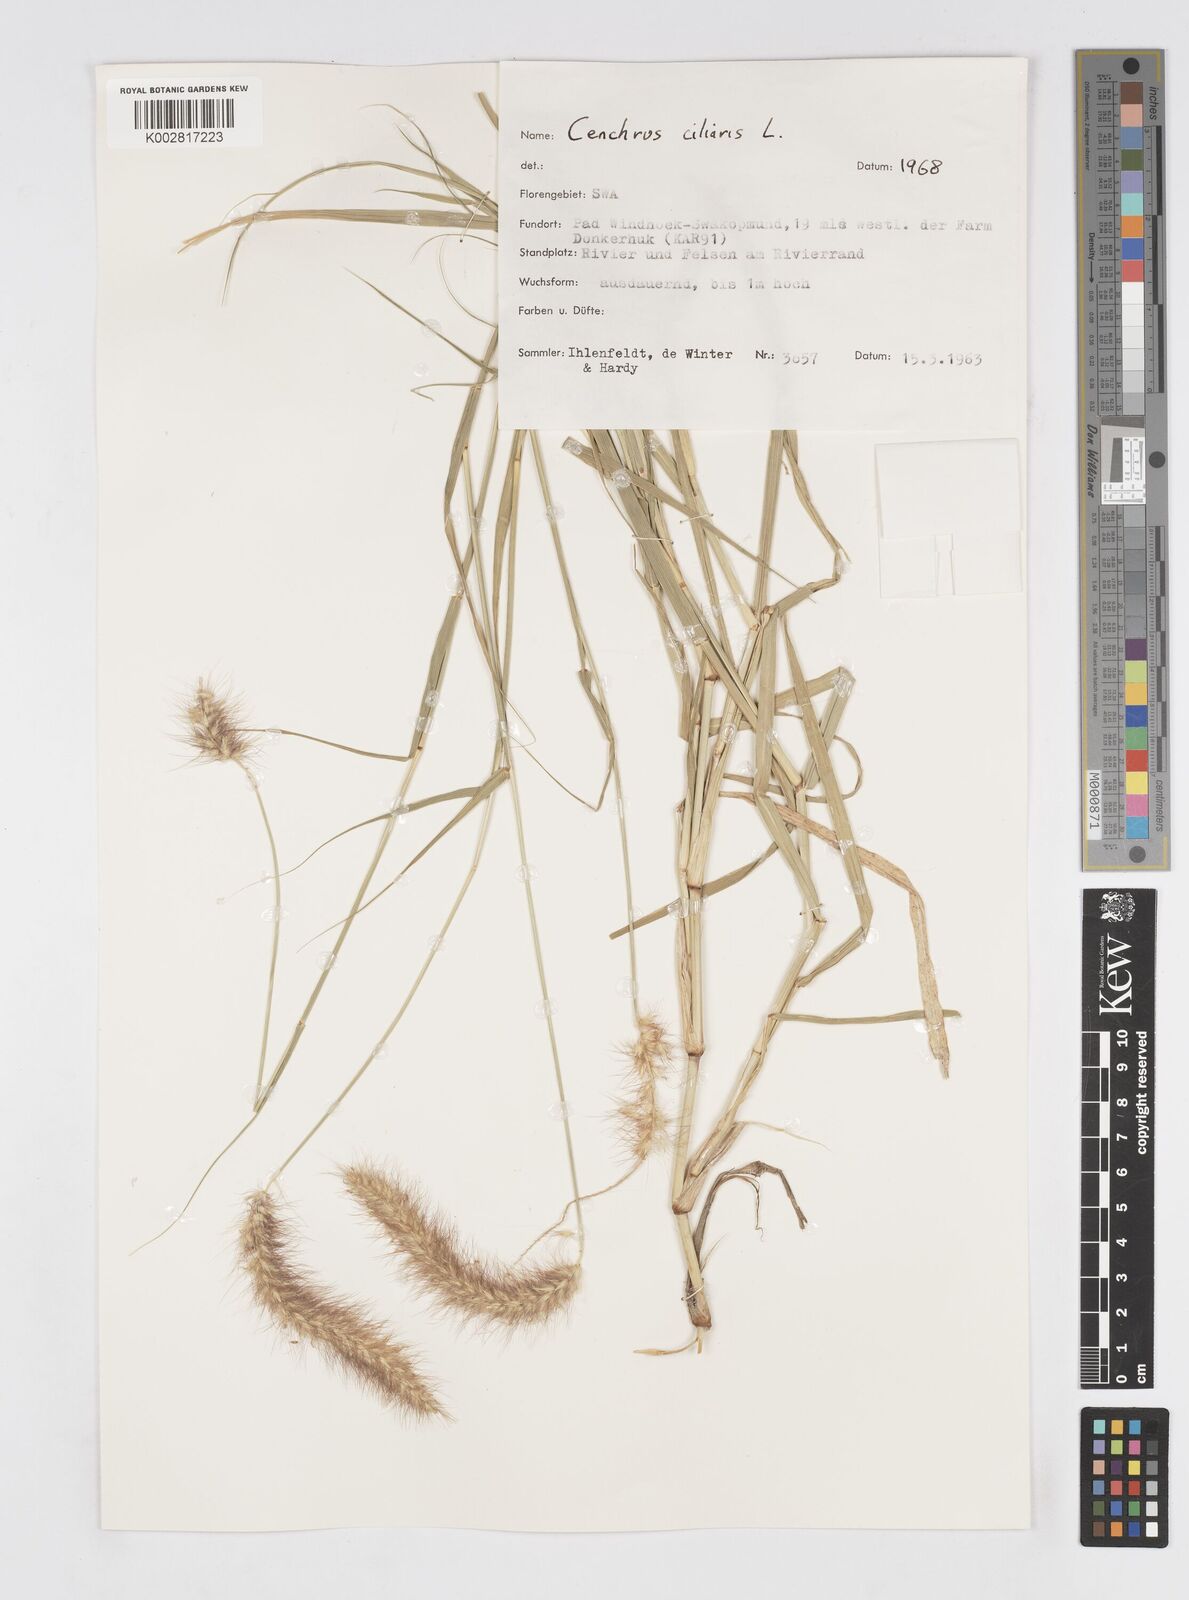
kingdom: Plantae
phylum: Tracheophyta
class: Liliopsida
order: Poales
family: Poaceae
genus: Cenchrus
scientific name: Cenchrus ciliaris
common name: Buffelgrass
